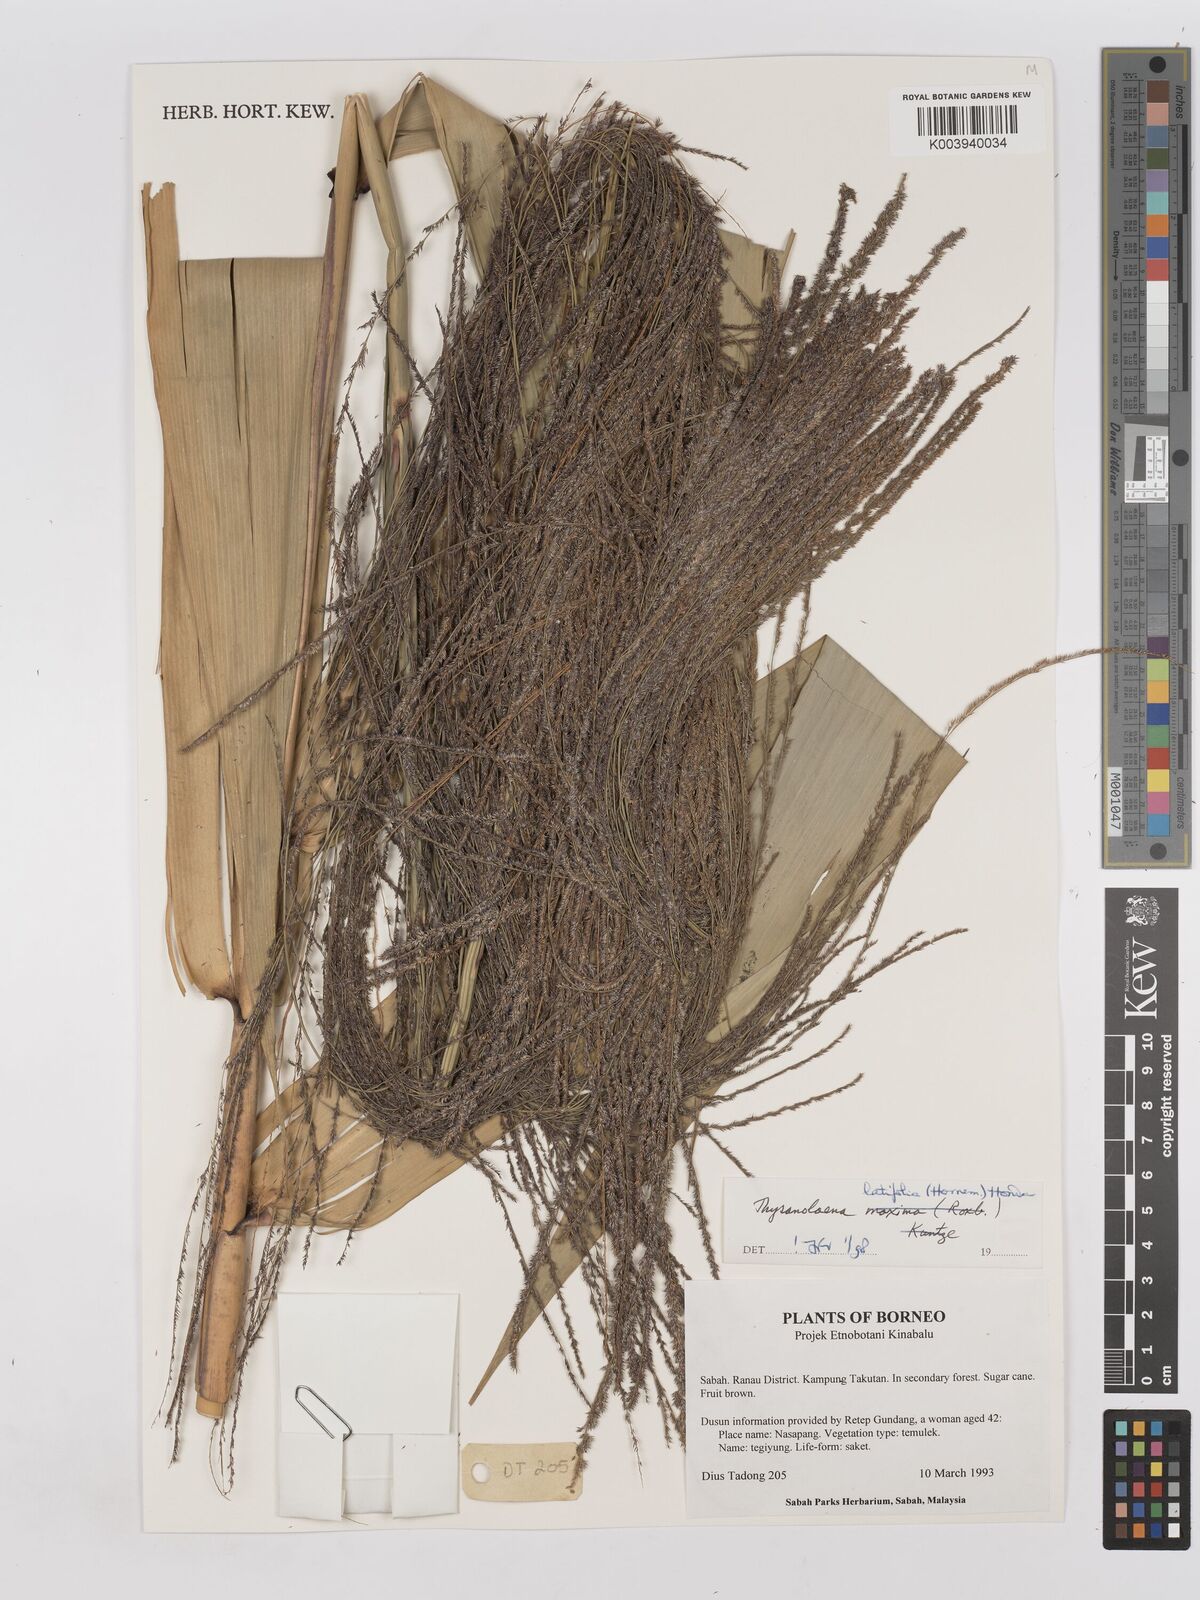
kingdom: Plantae
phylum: Tracheophyta
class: Liliopsida
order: Poales
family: Poaceae
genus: Thysanolaena
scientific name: Thysanolaena latifolia
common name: Tiger grass
